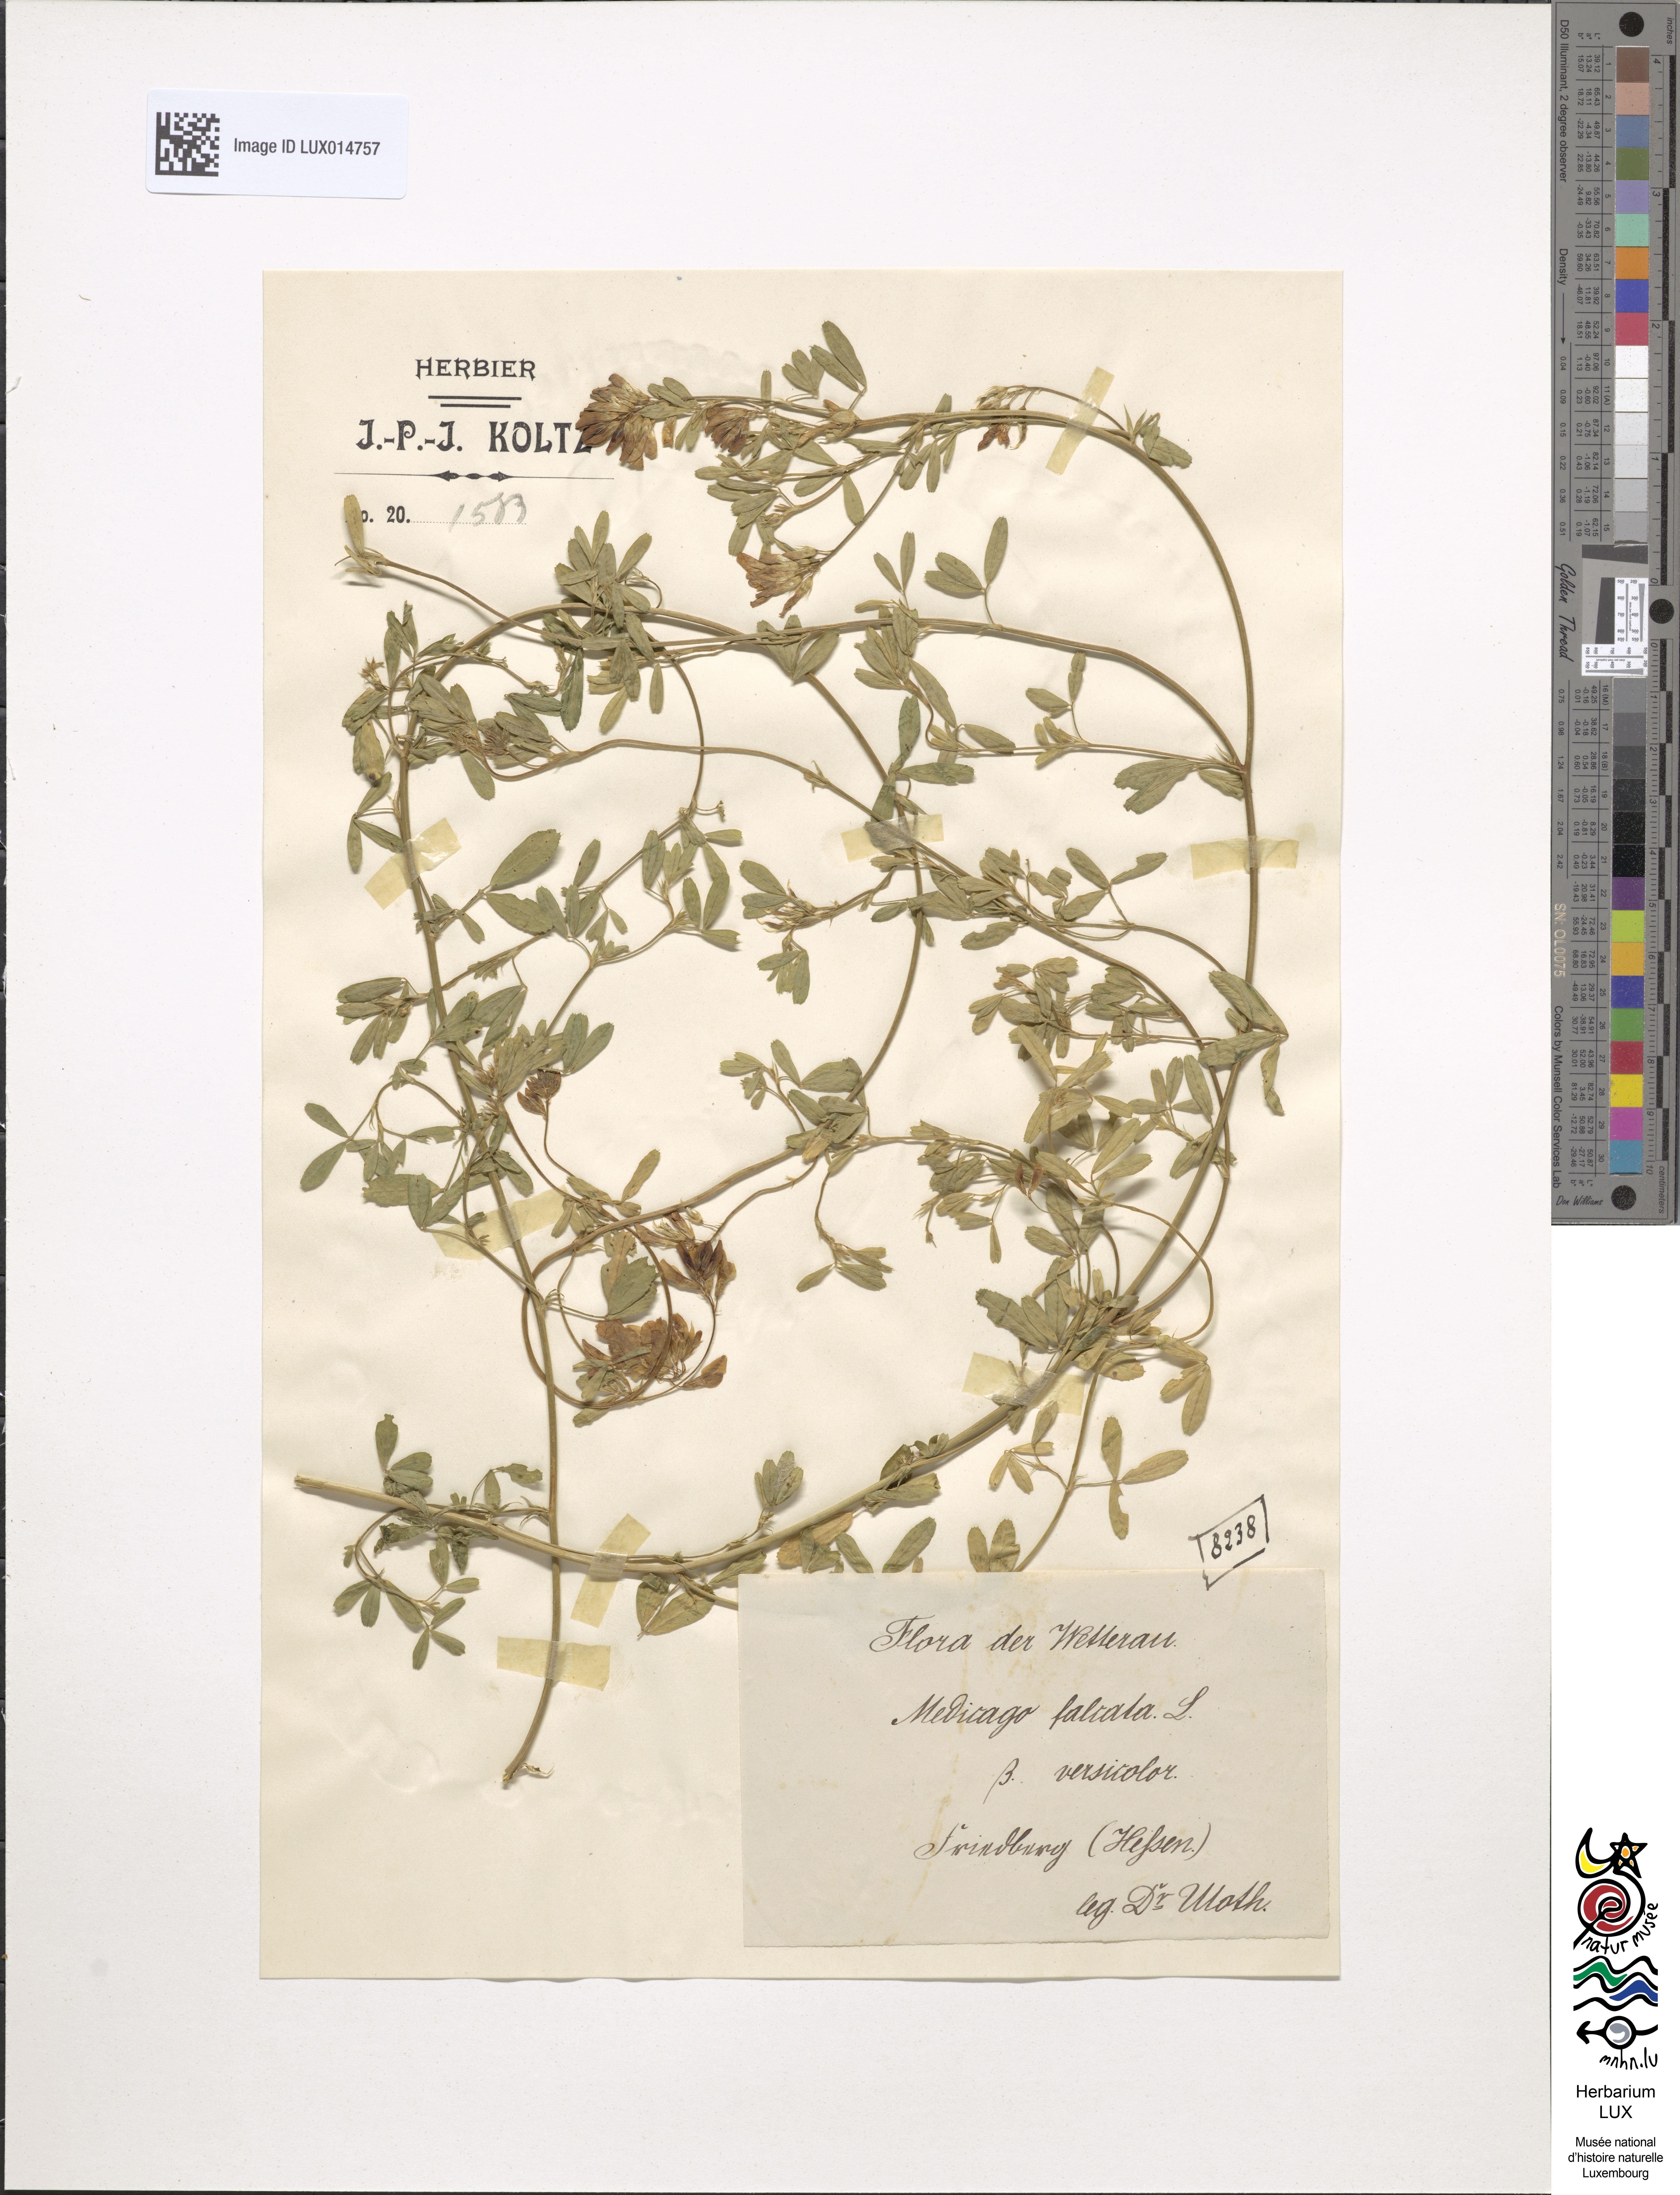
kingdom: Plantae
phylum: Tracheophyta
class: Magnoliopsida
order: Fabales
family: Fabaceae
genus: Medicago
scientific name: Medicago varia
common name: Sand lucerne
